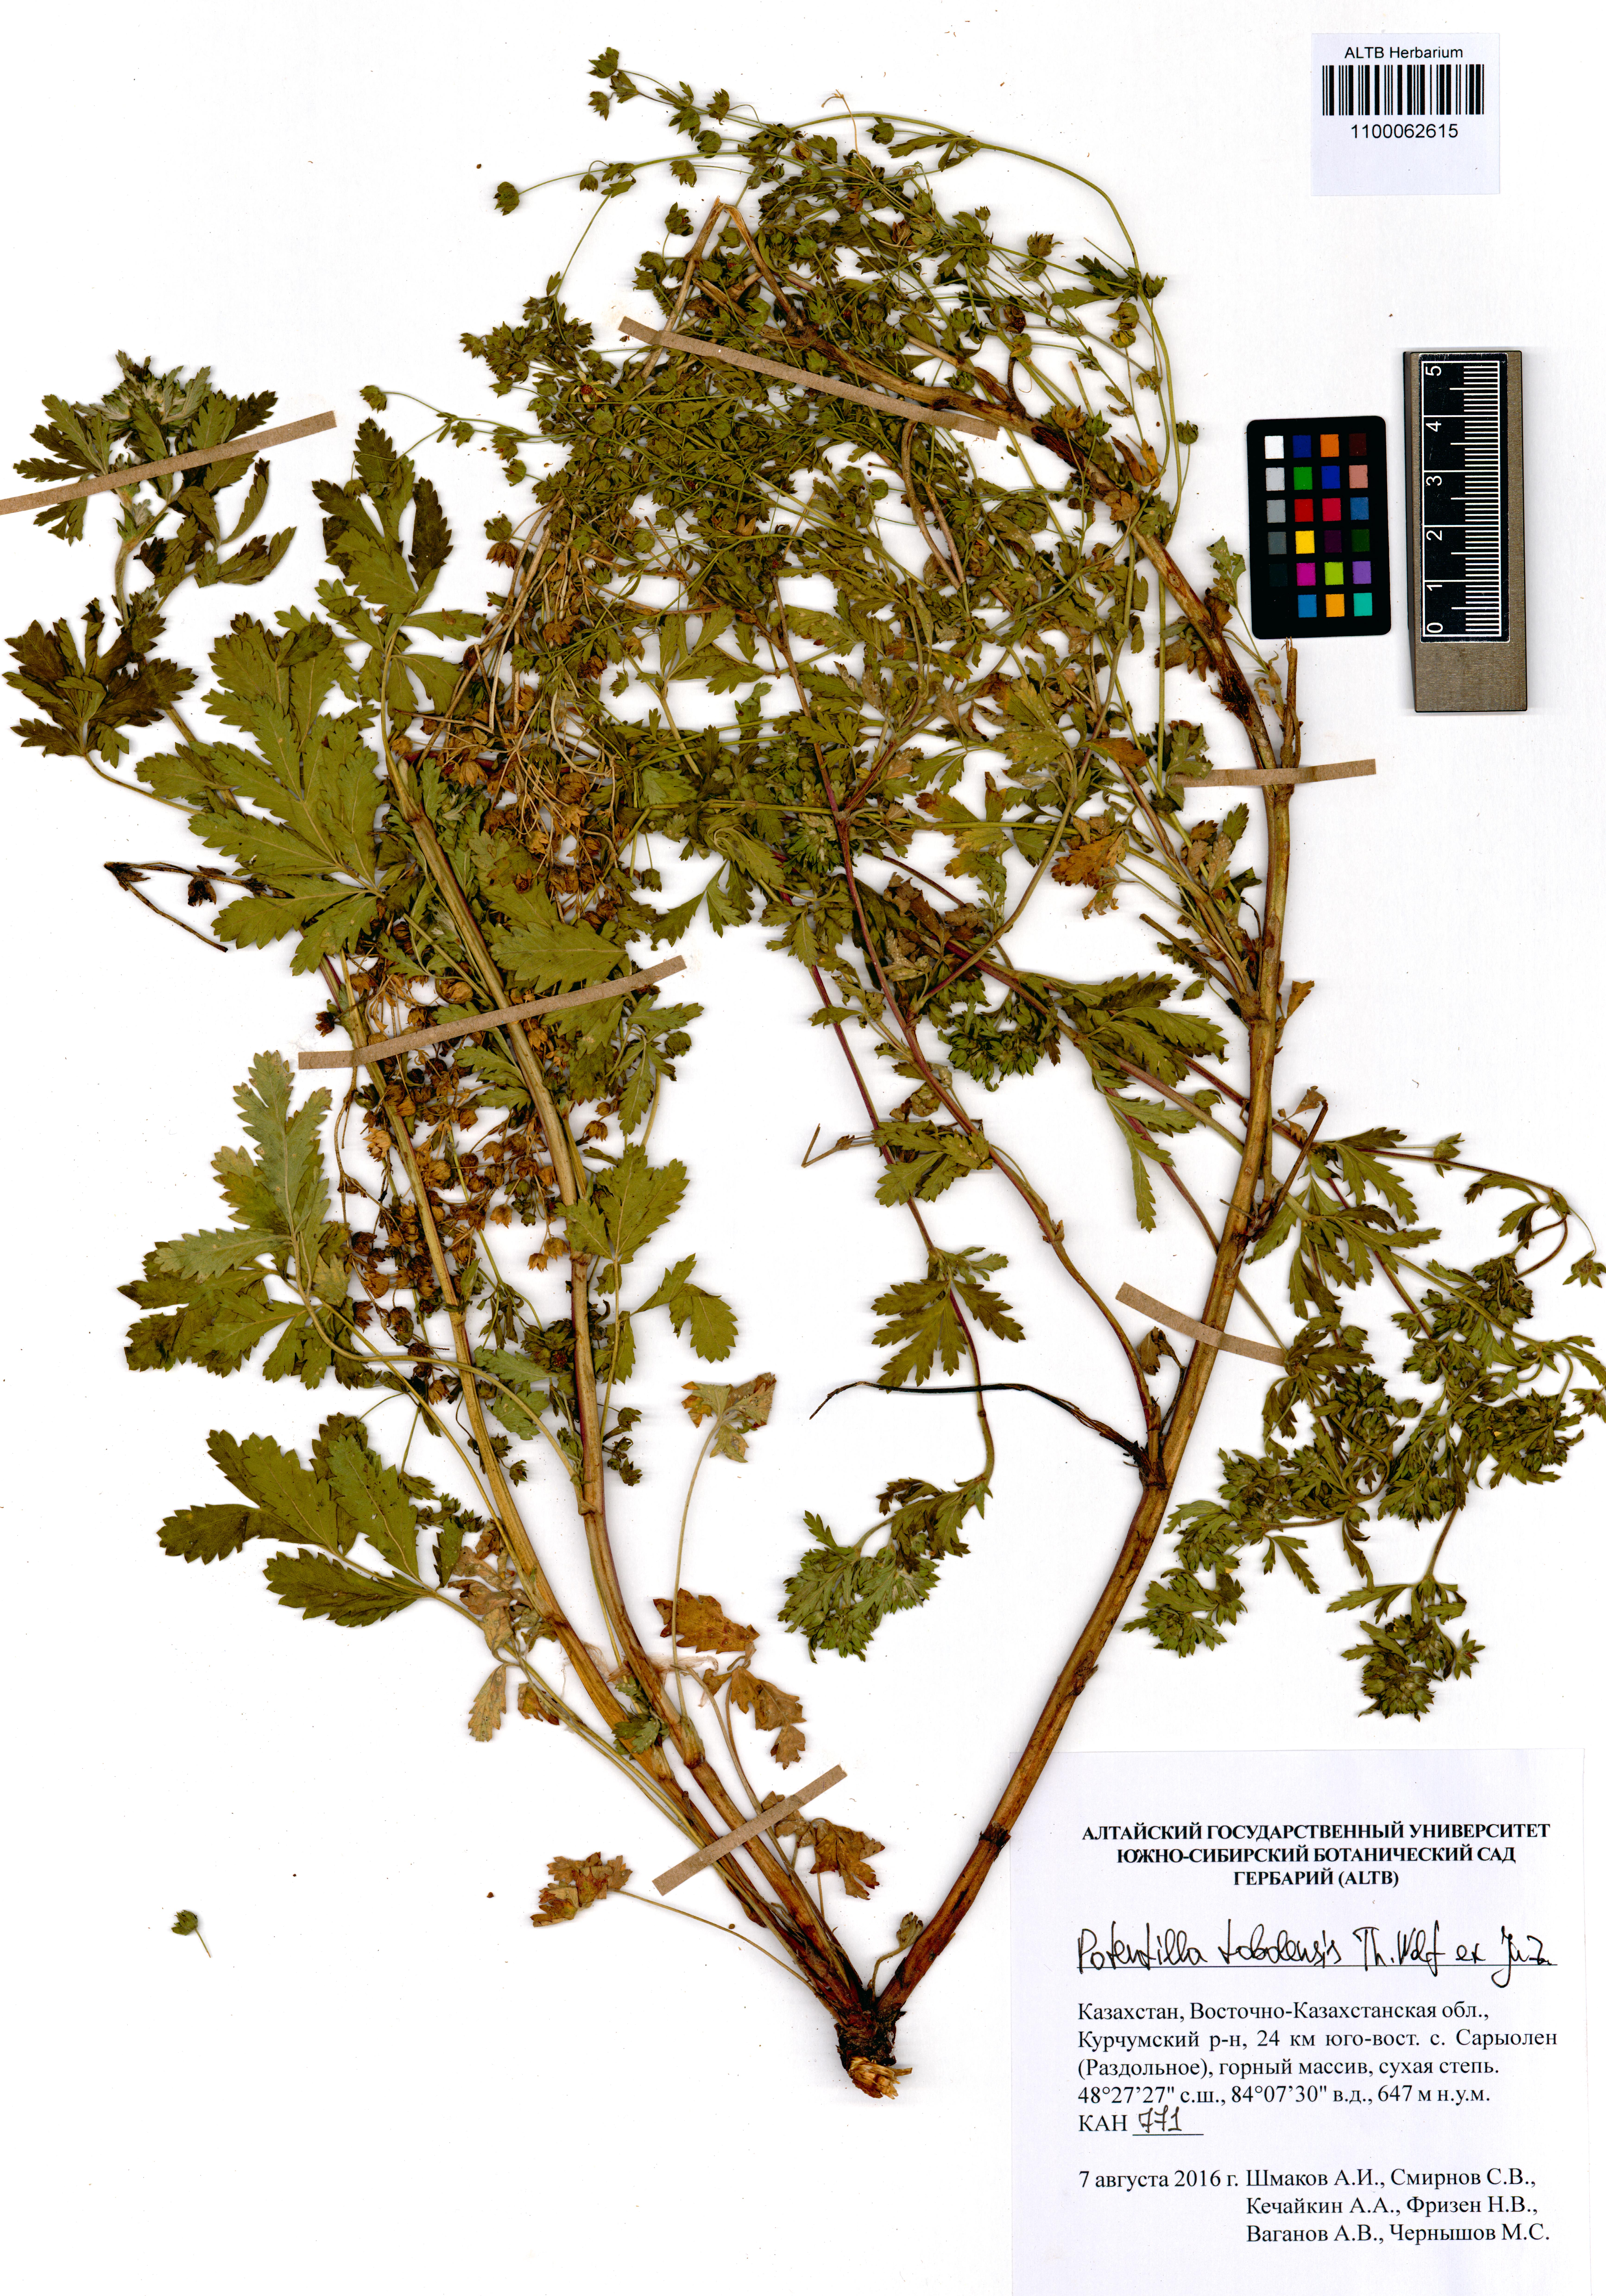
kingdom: Plantae
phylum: Tracheophyta
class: Magnoliopsida
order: Rosales
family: Rosaceae
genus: Potentilla
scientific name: Potentilla tobolensis
